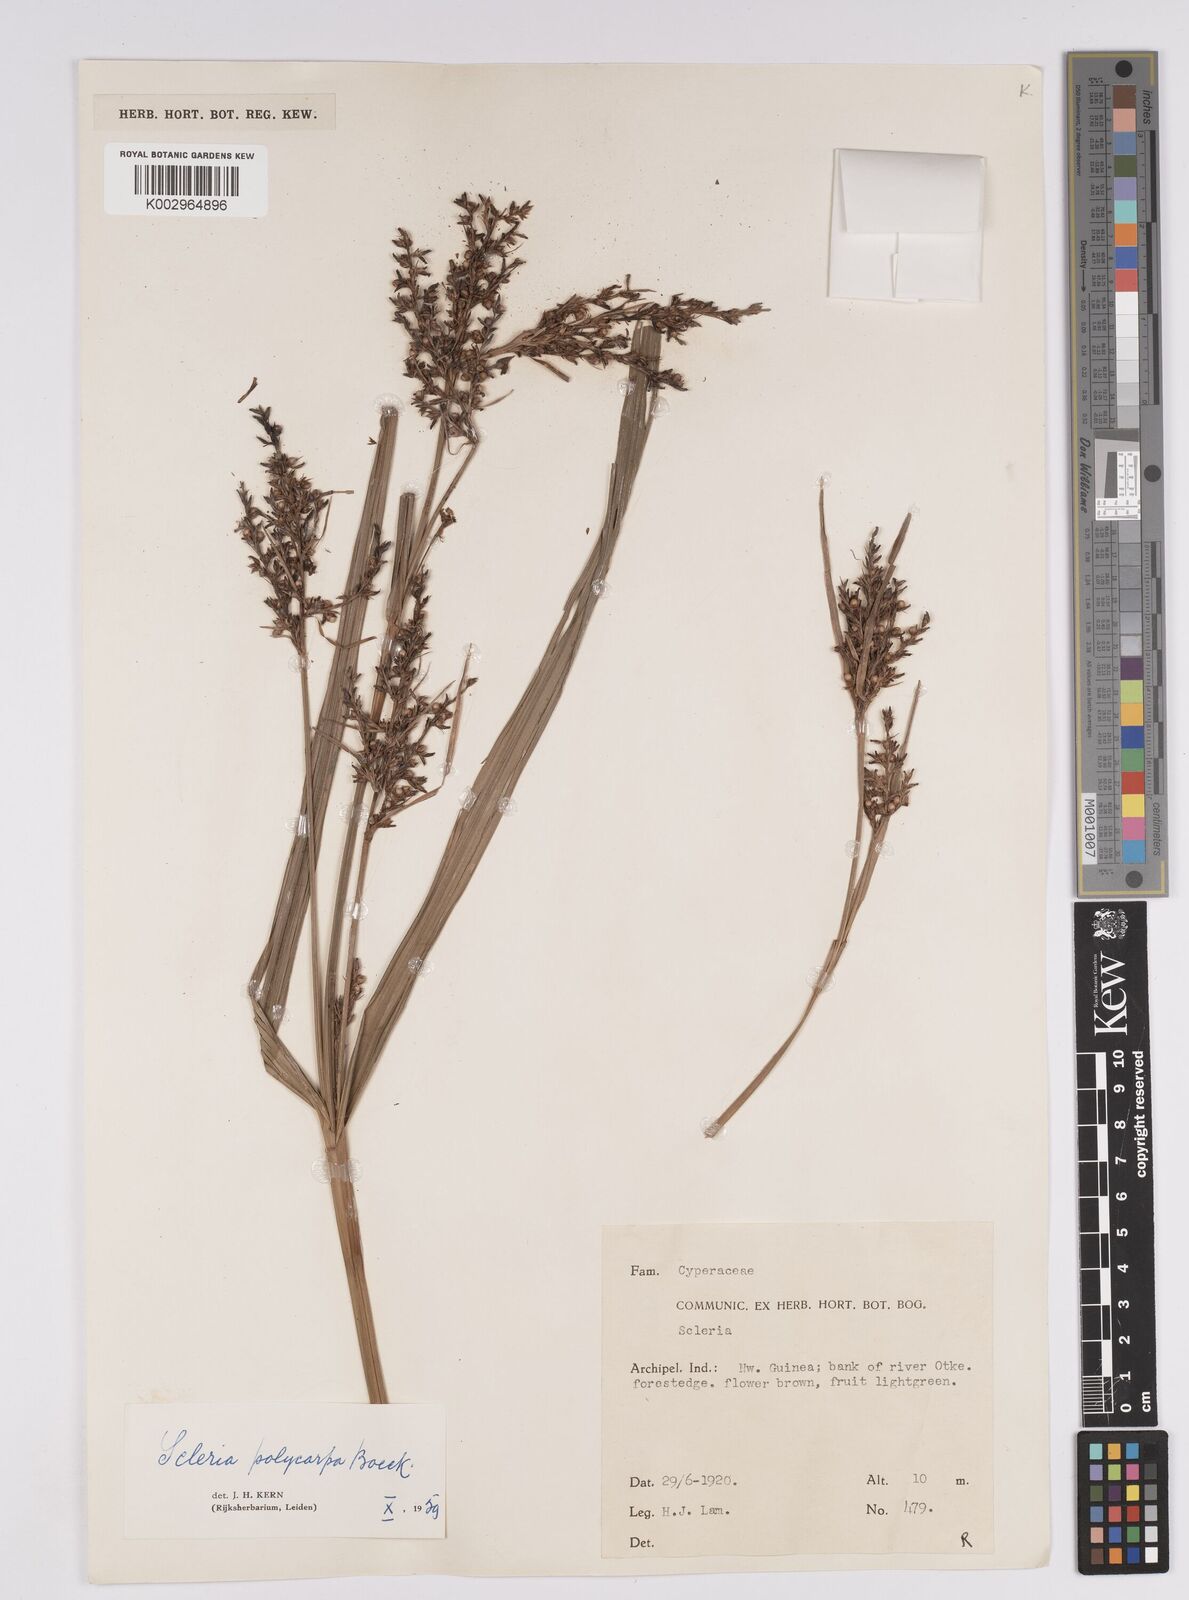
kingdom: Plantae
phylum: Tracheophyta
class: Liliopsida
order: Poales
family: Cyperaceae
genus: Scleria
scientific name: Scleria polycarpa
